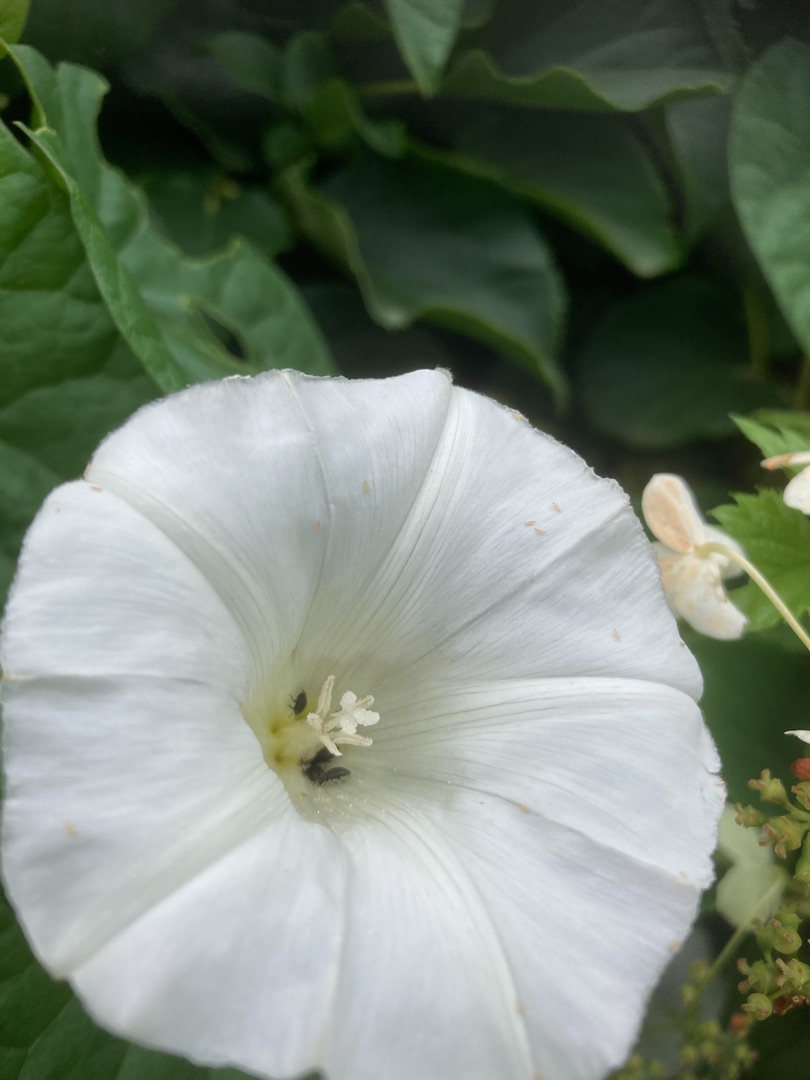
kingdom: Plantae
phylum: Tracheophyta
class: Magnoliopsida
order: Solanales
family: Convolvulaceae
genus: Calystegia
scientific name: Calystegia sepium
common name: Gærde-snerle
